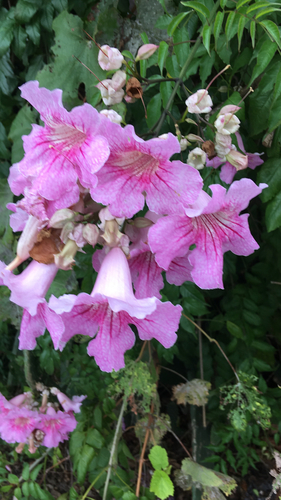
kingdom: Plantae
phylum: Tracheophyta
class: Magnoliopsida
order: Lamiales
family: Bignoniaceae
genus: Podranea
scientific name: Podranea ricasoliana
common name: Zimbabwe creeper
